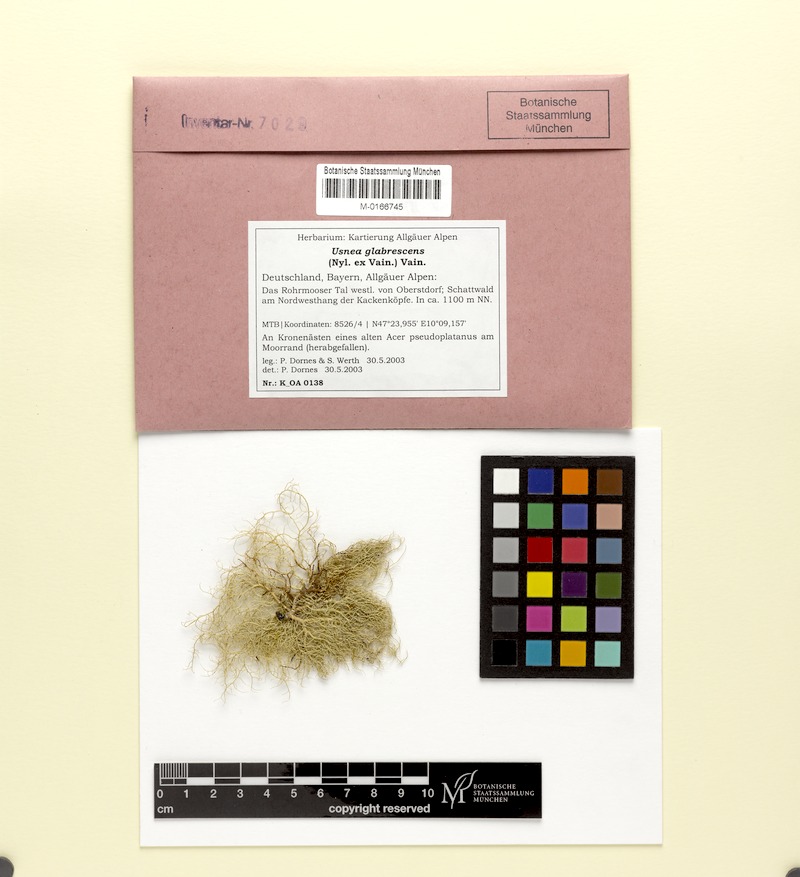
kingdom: Fungi
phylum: Ascomycota
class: Lecanoromycetes
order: Lecanorales
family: Parmeliaceae
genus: Usnea
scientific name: Usnea glabrescens
